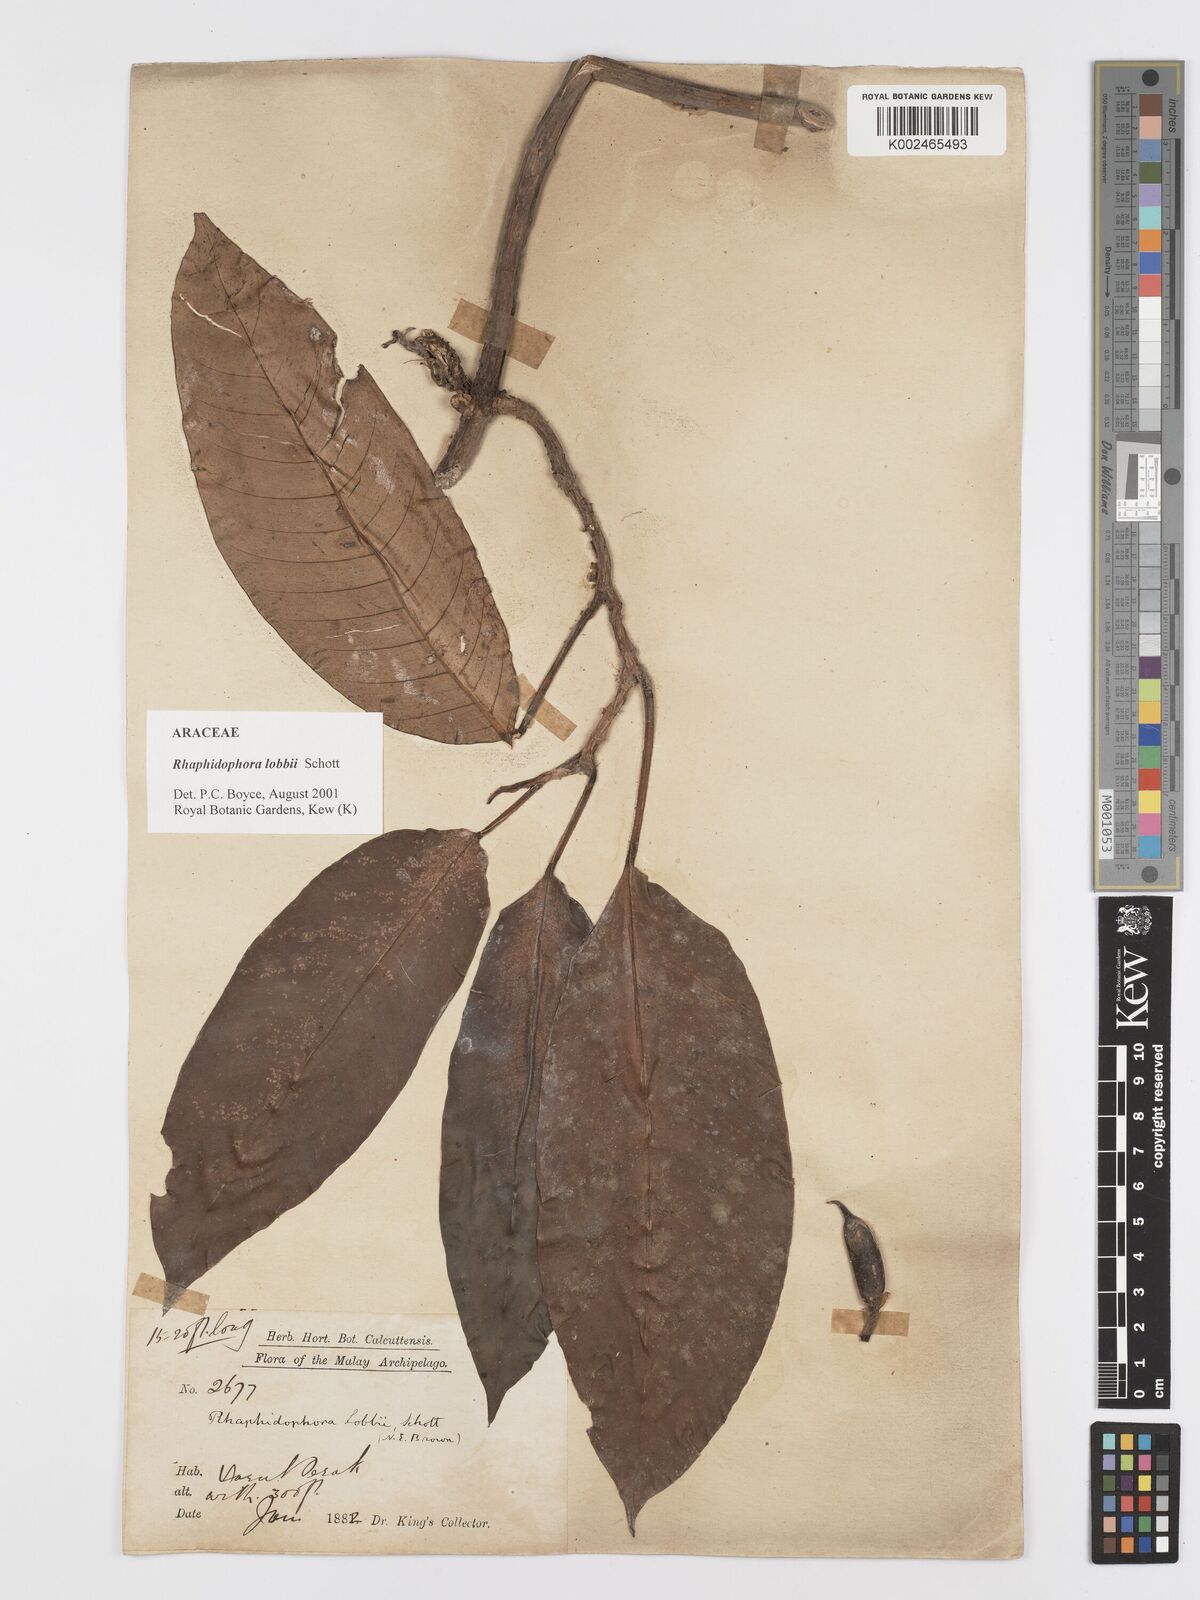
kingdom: Plantae
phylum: Tracheophyta
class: Liliopsida
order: Alismatales
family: Araceae
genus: Rhaphidophora
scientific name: Rhaphidophora lobbii
